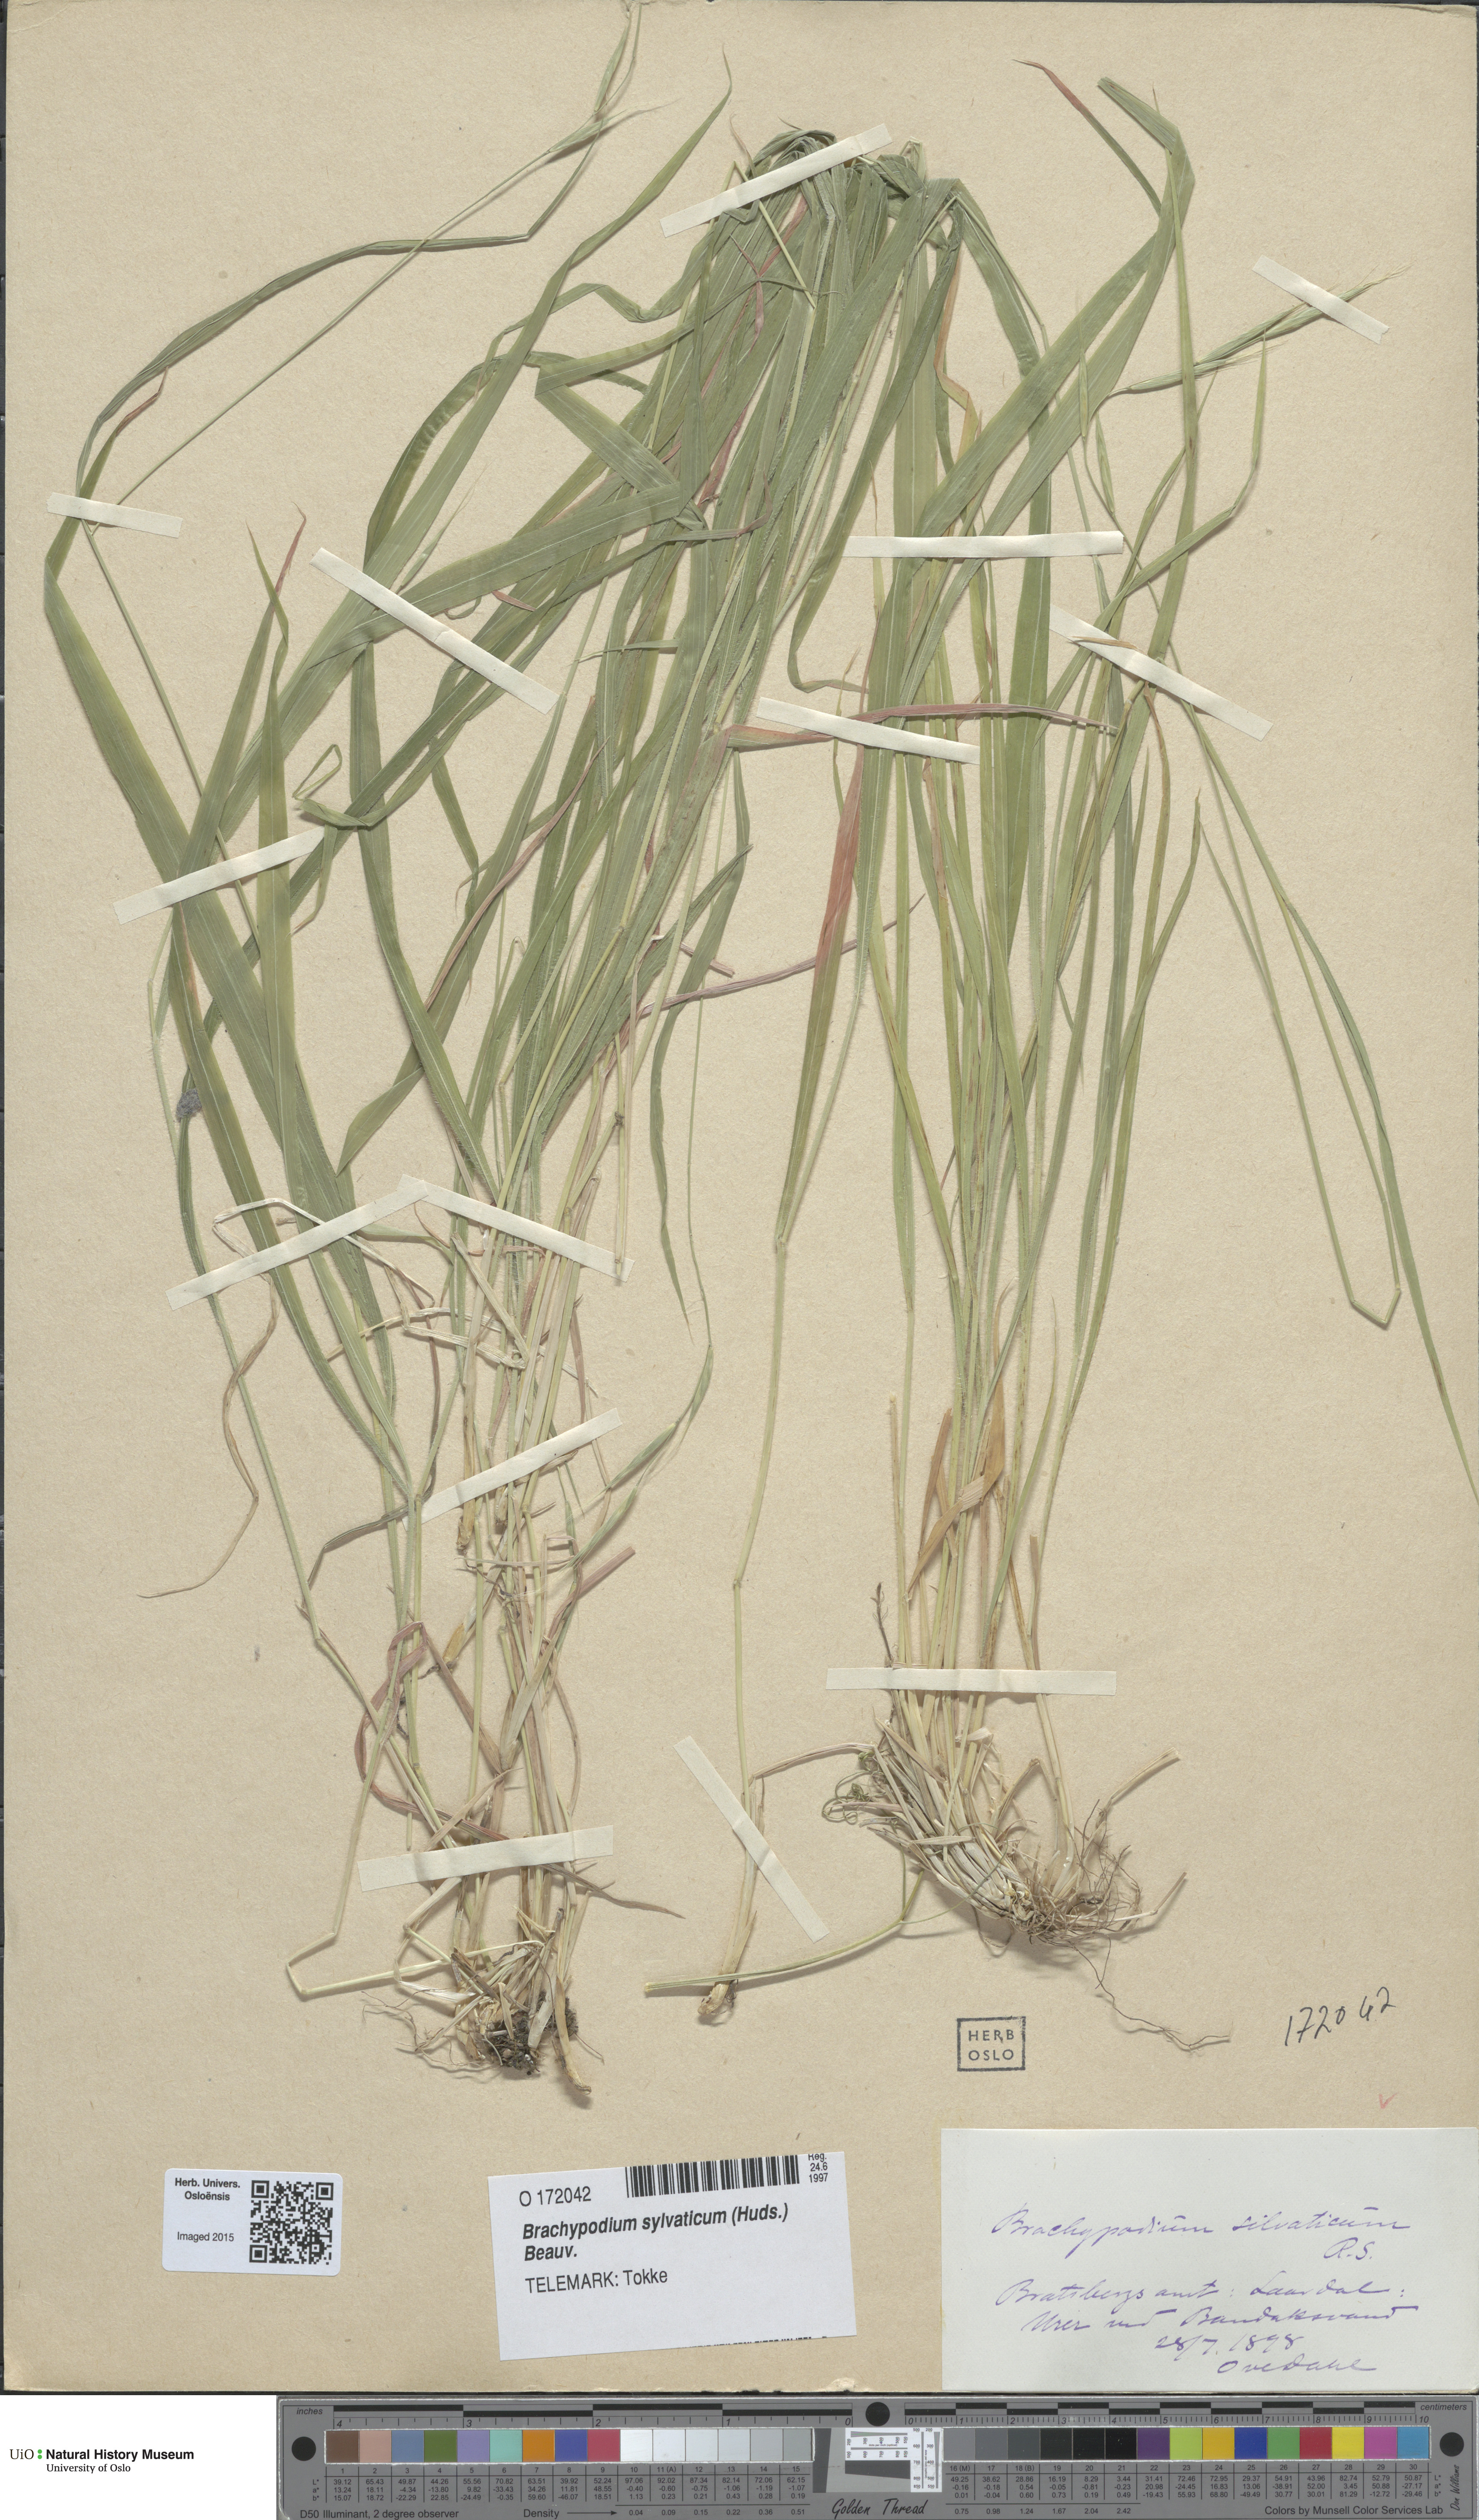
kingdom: Plantae
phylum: Tracheophyta
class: Liliopsida
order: Poales
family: Poaceae
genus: Brachypodium
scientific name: Brachypodium sylvaticum
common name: False-brome
